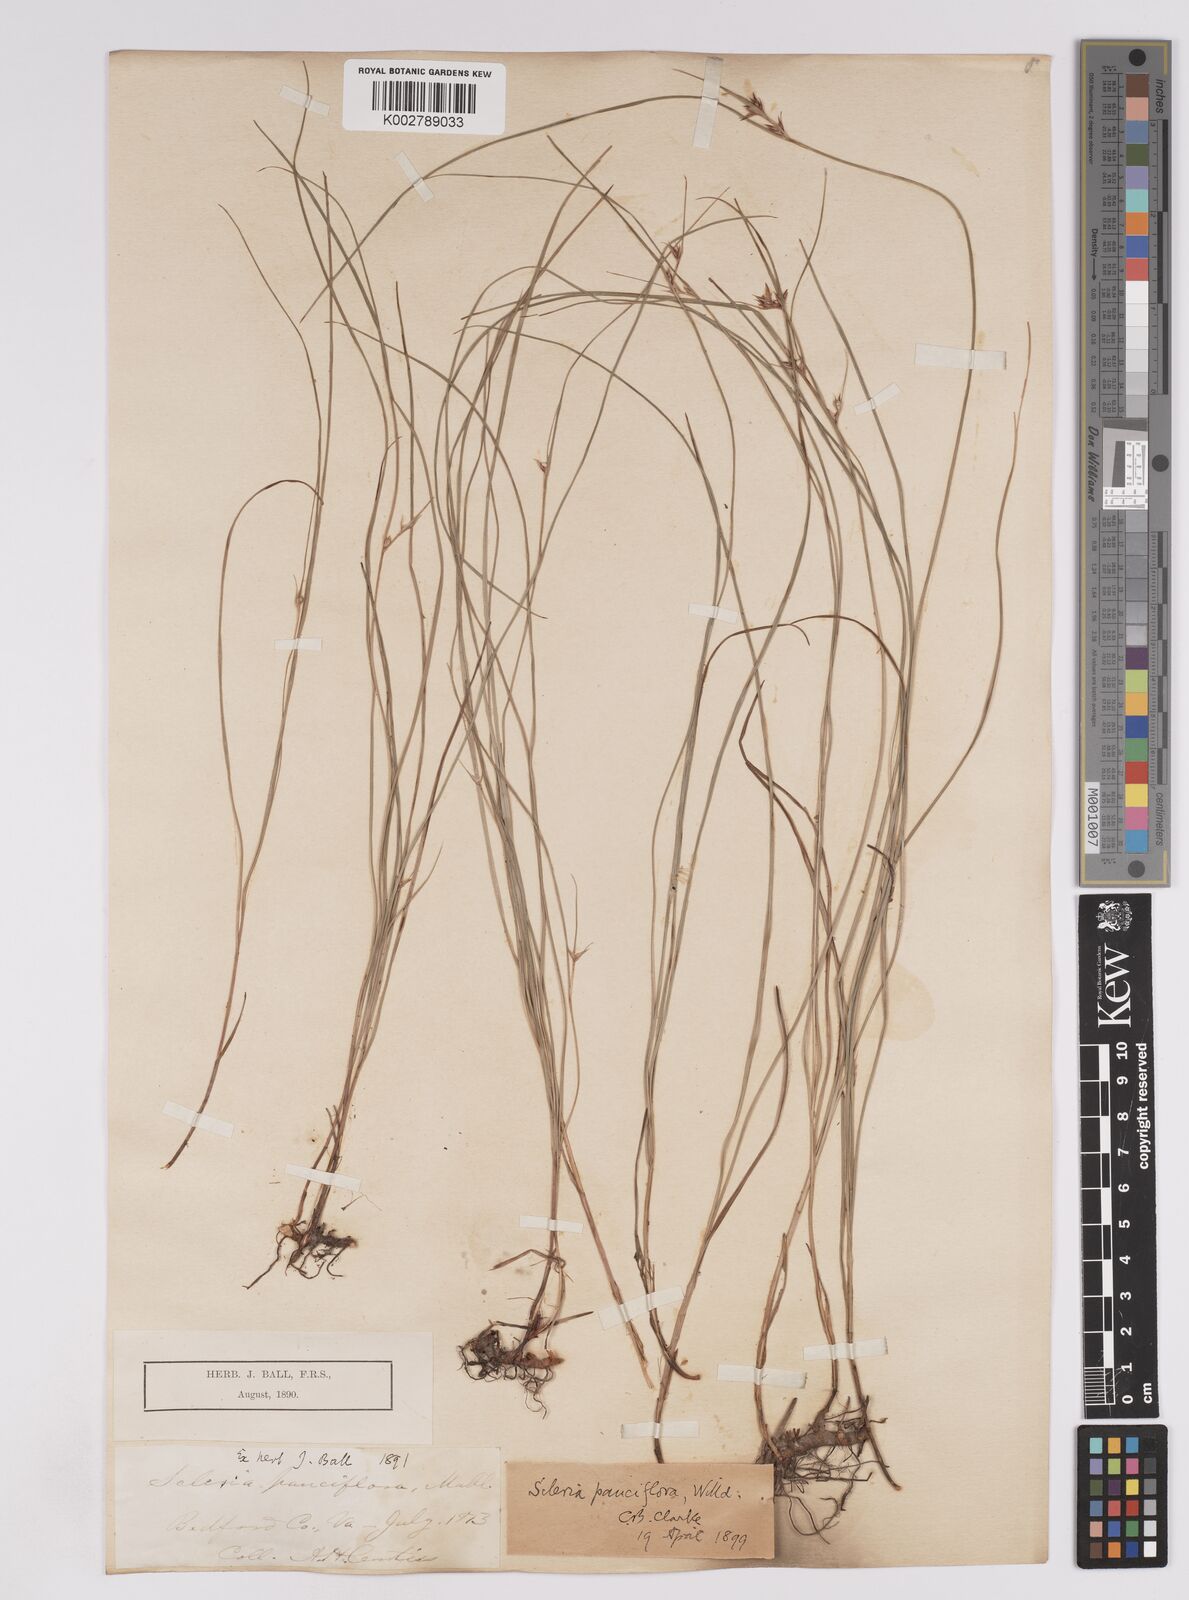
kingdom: Plantae
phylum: Tracheophyta
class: Liliopsida
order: Poales
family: Cyperaceae
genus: Scleria
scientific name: Scleria pauciflora
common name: Few-flowered nutrush
